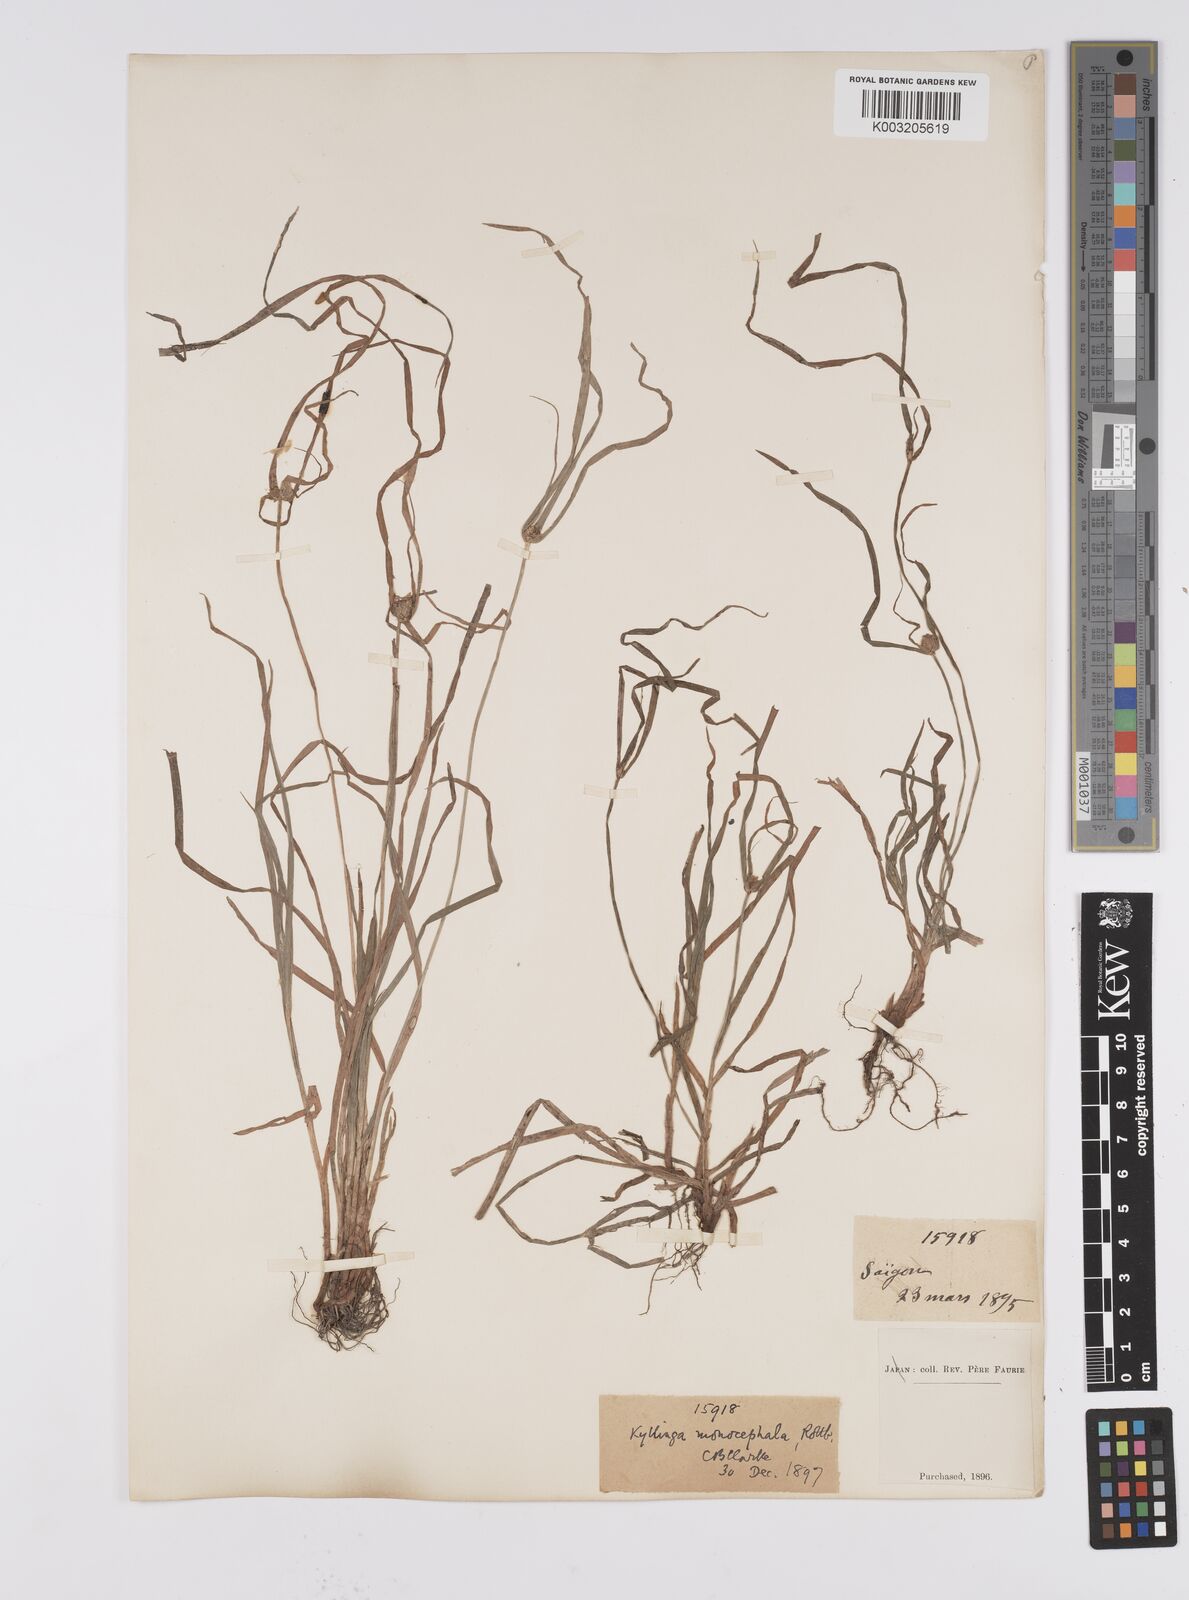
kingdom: Plantae
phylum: Tracheophyta
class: Liliopsida
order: Poales
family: Cyperaceae
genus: Cyperus
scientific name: Cyperus
